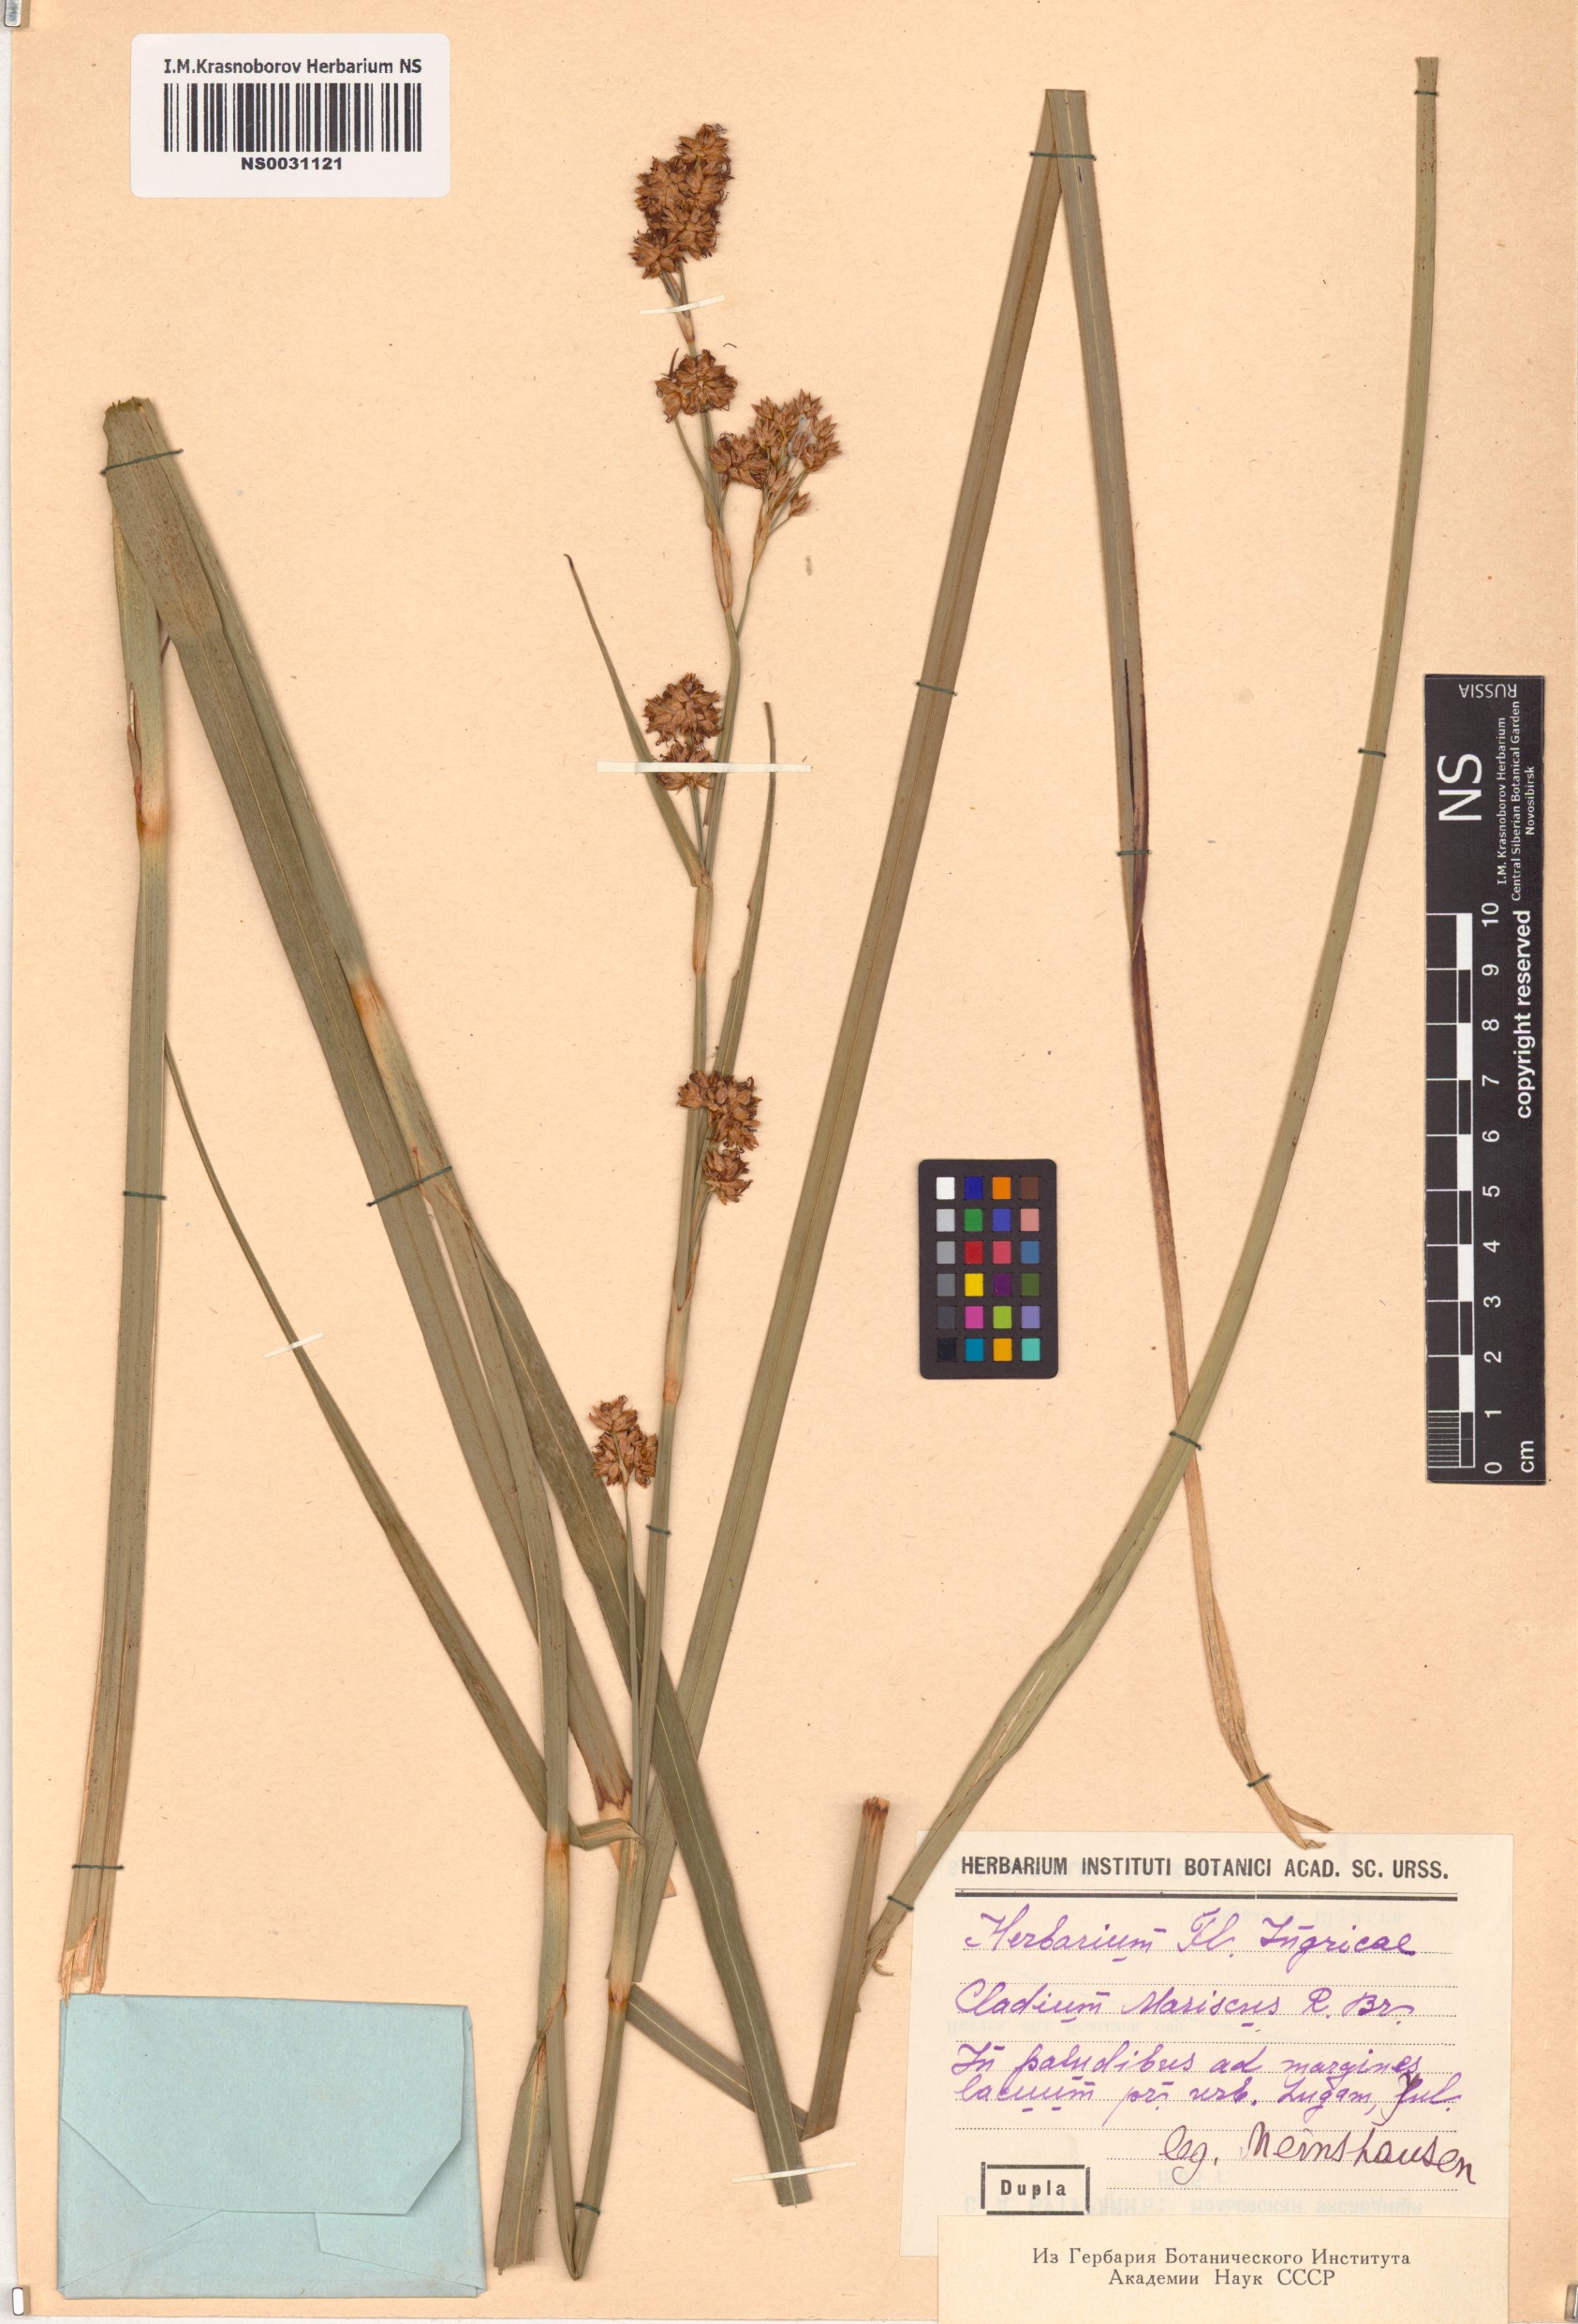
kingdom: Plantae
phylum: Tracheophyta
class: Liliopsida
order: Poales
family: Cyperaceae
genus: Cladium
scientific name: Cladium mariscus
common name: Great fen-sedge
